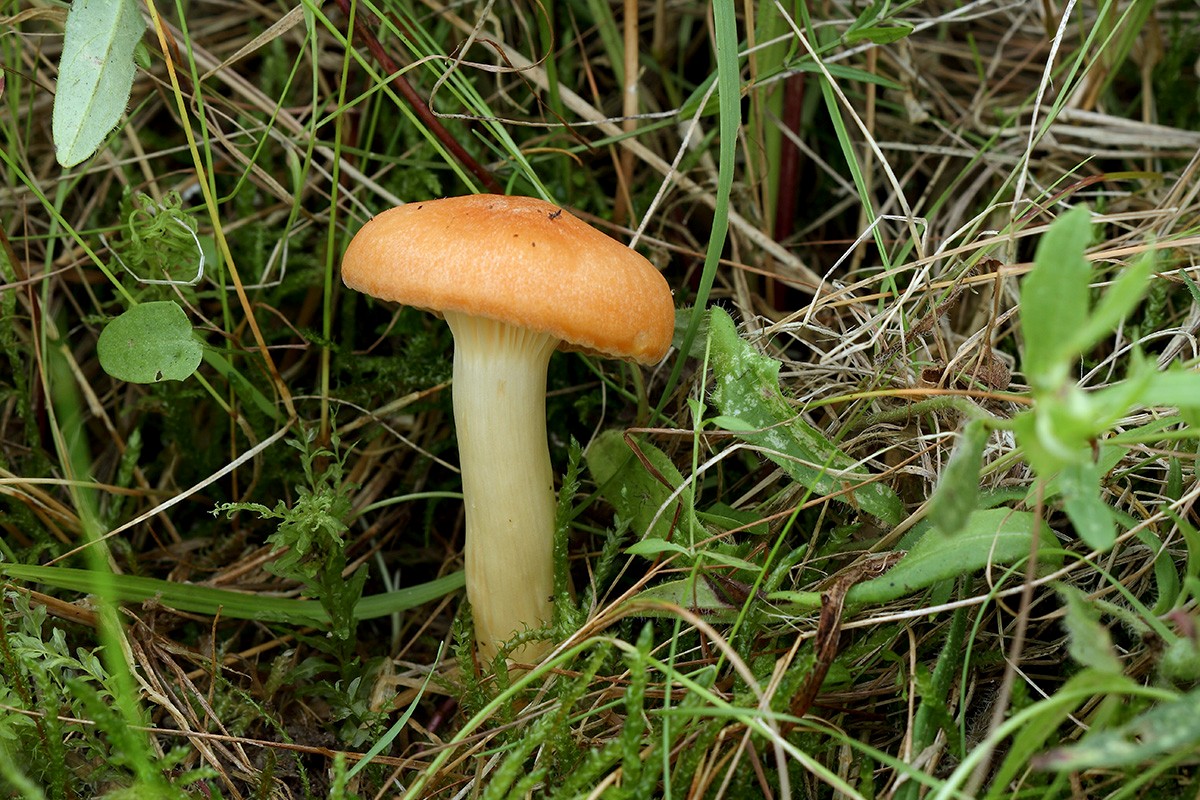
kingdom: Fungi
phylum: Basidiomycota
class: Agaricomycetes
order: Agaricales
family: Hygrophoraceae
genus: Cuphophyllus
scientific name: Cuphophyllus pratensis
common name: eng-vokshat
